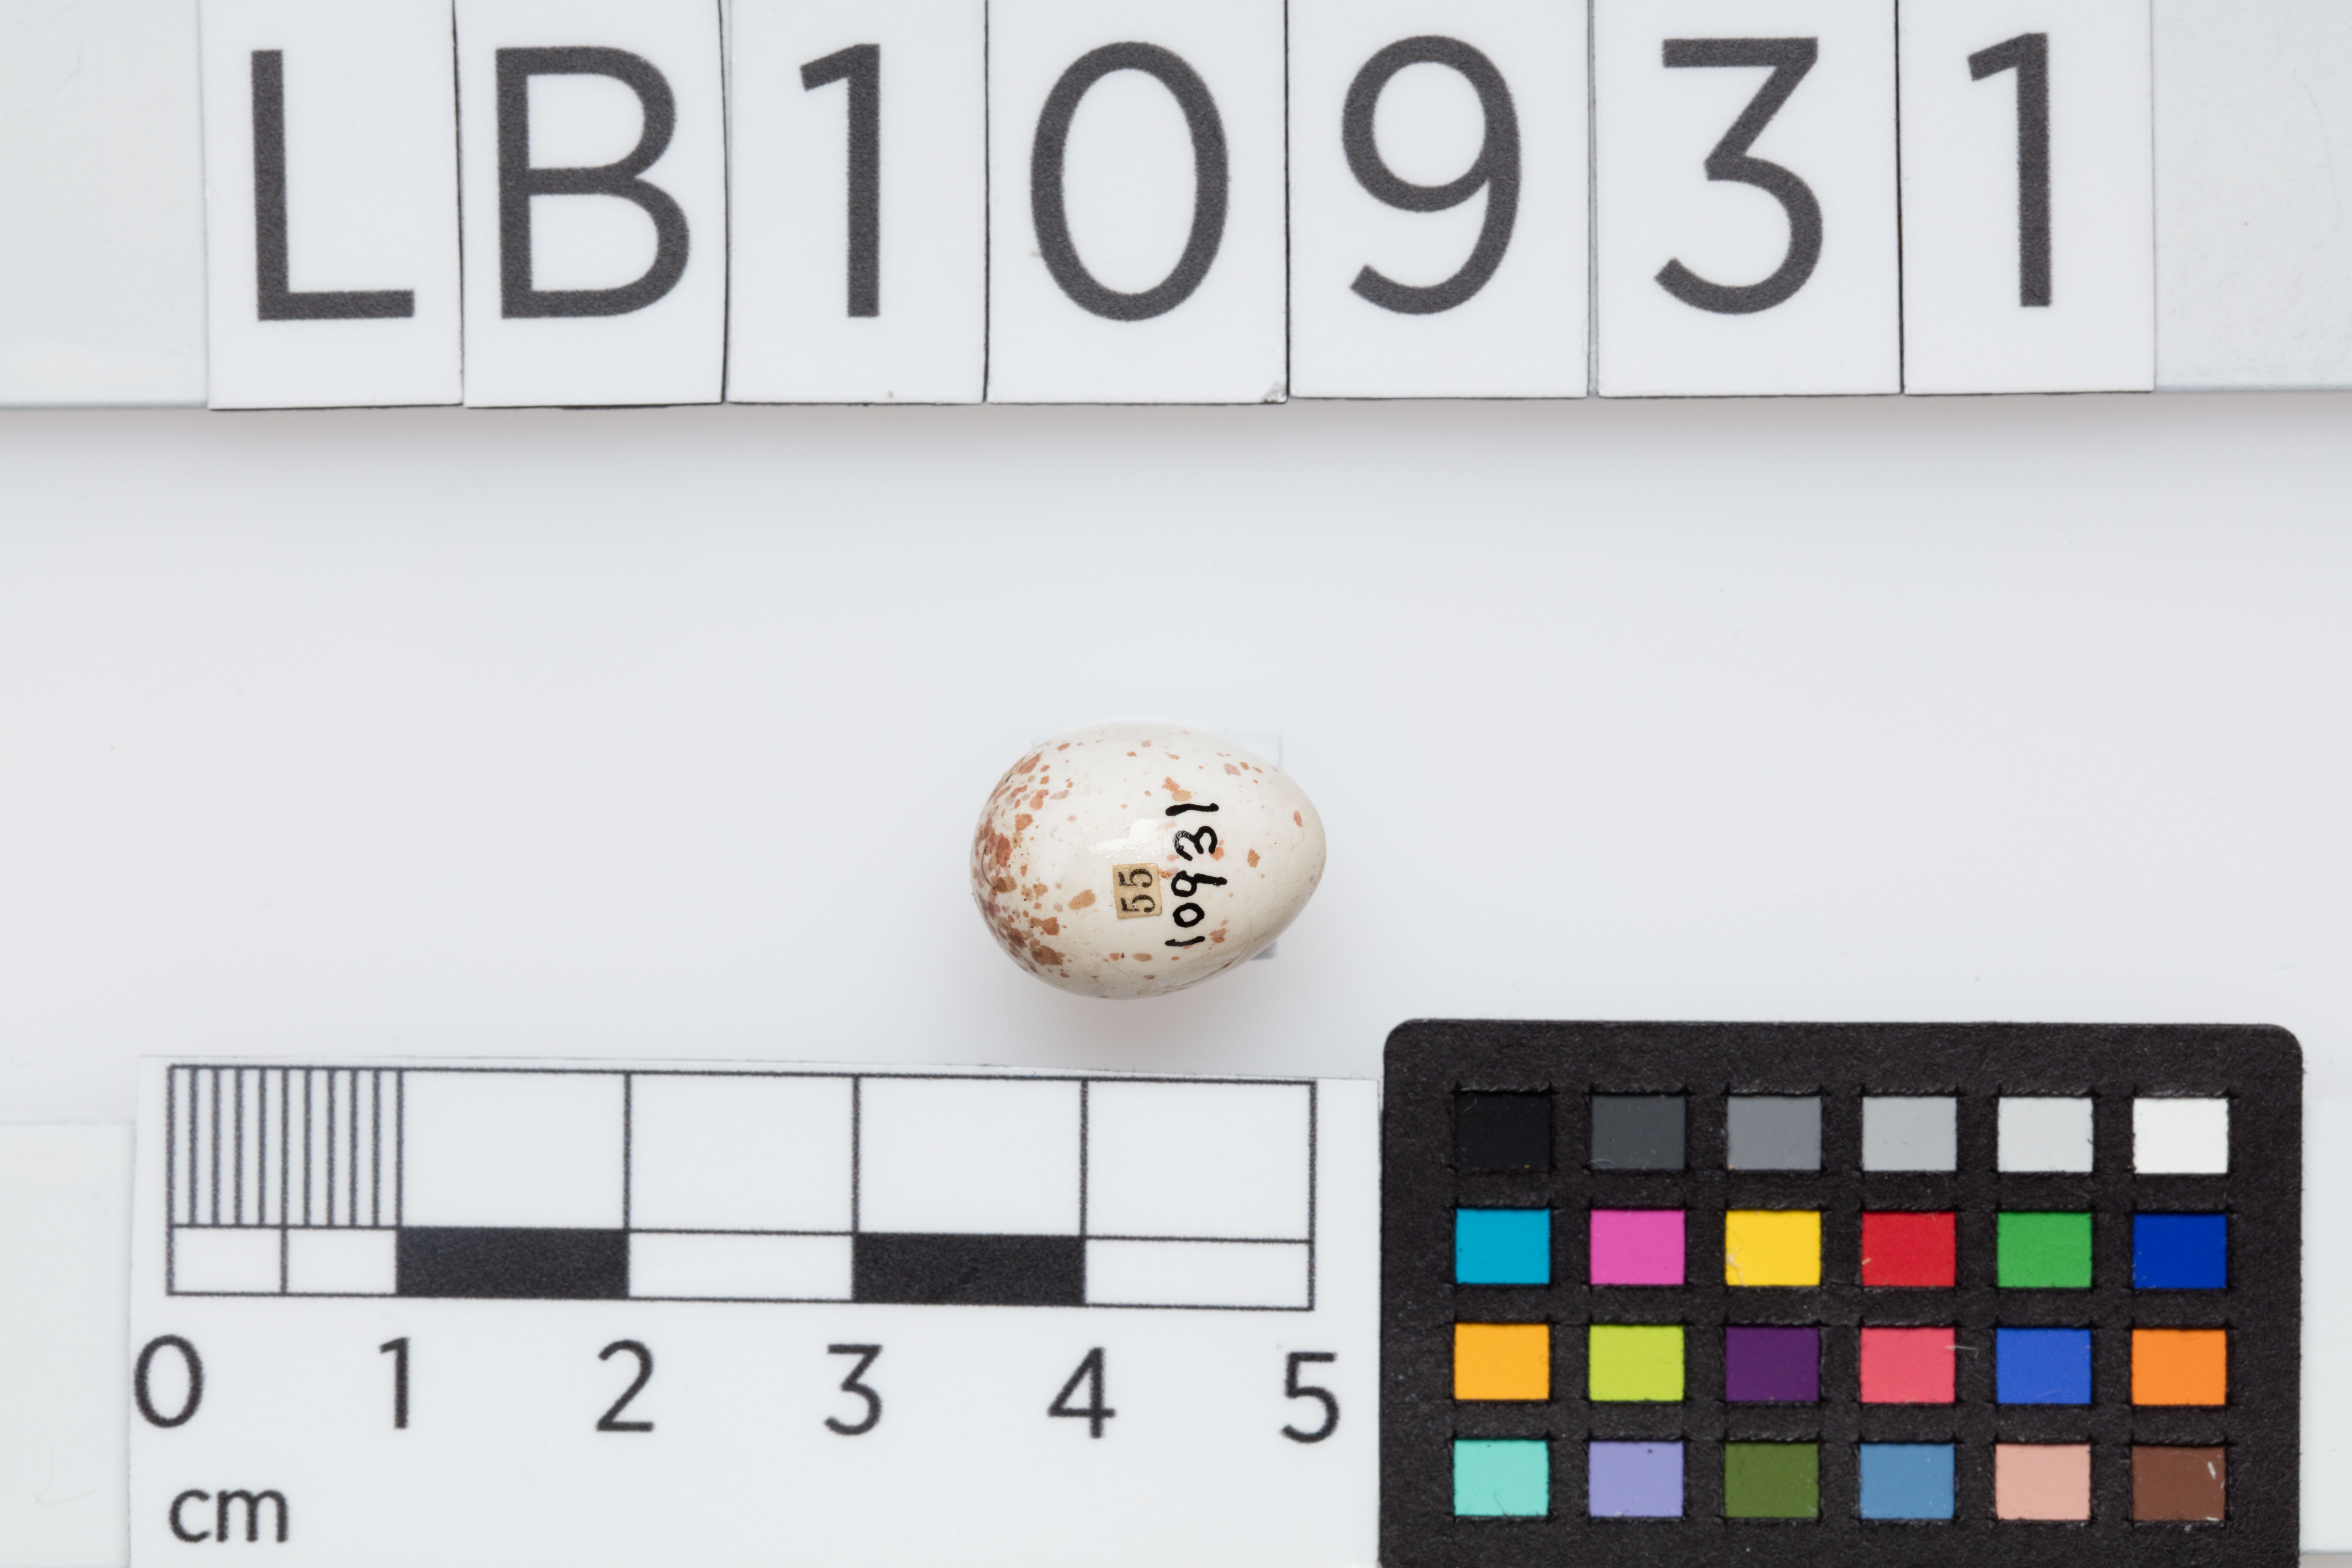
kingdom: Animalia
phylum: Chordata
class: Aves
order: Passeriformes
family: Paridae
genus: Poecile
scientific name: Poecile palustris
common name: Marsh tit
